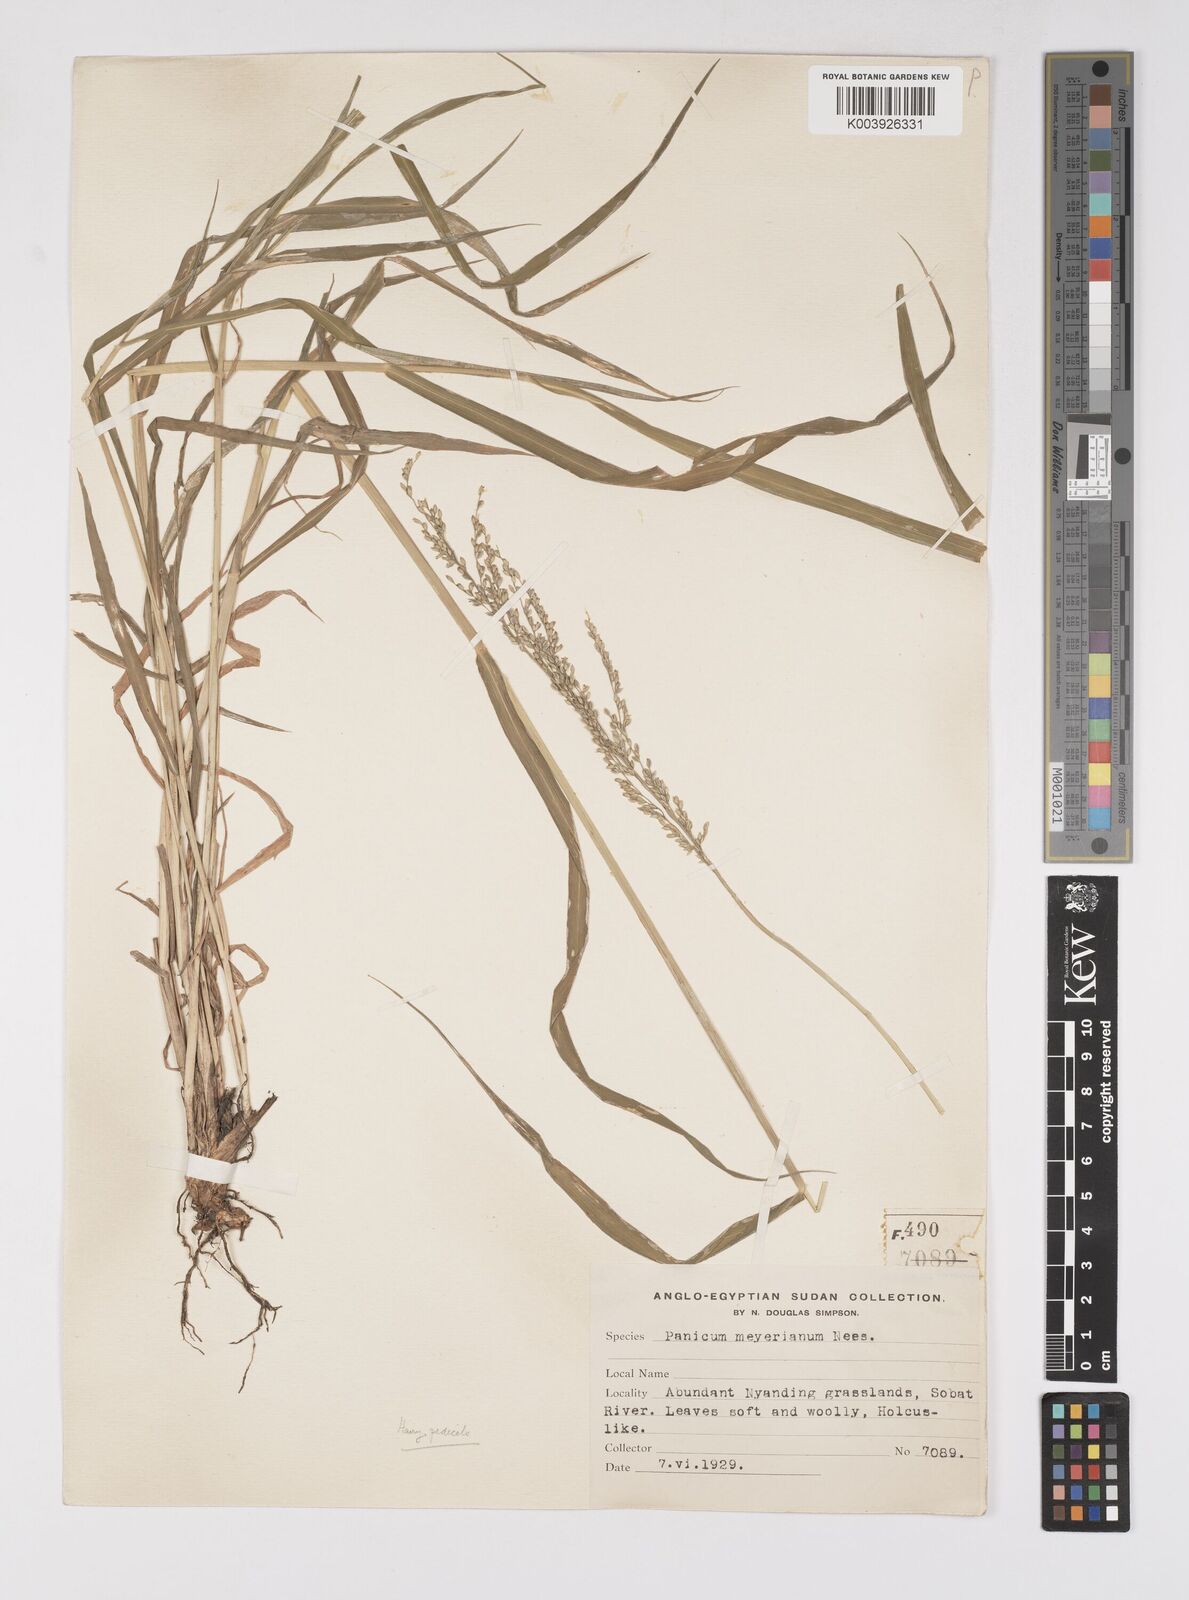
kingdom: Plantae
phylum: Tracheophyta
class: Liliopsida
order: Poales
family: Poaceae
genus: Eriochloa
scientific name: Eriochloa meyeriana
